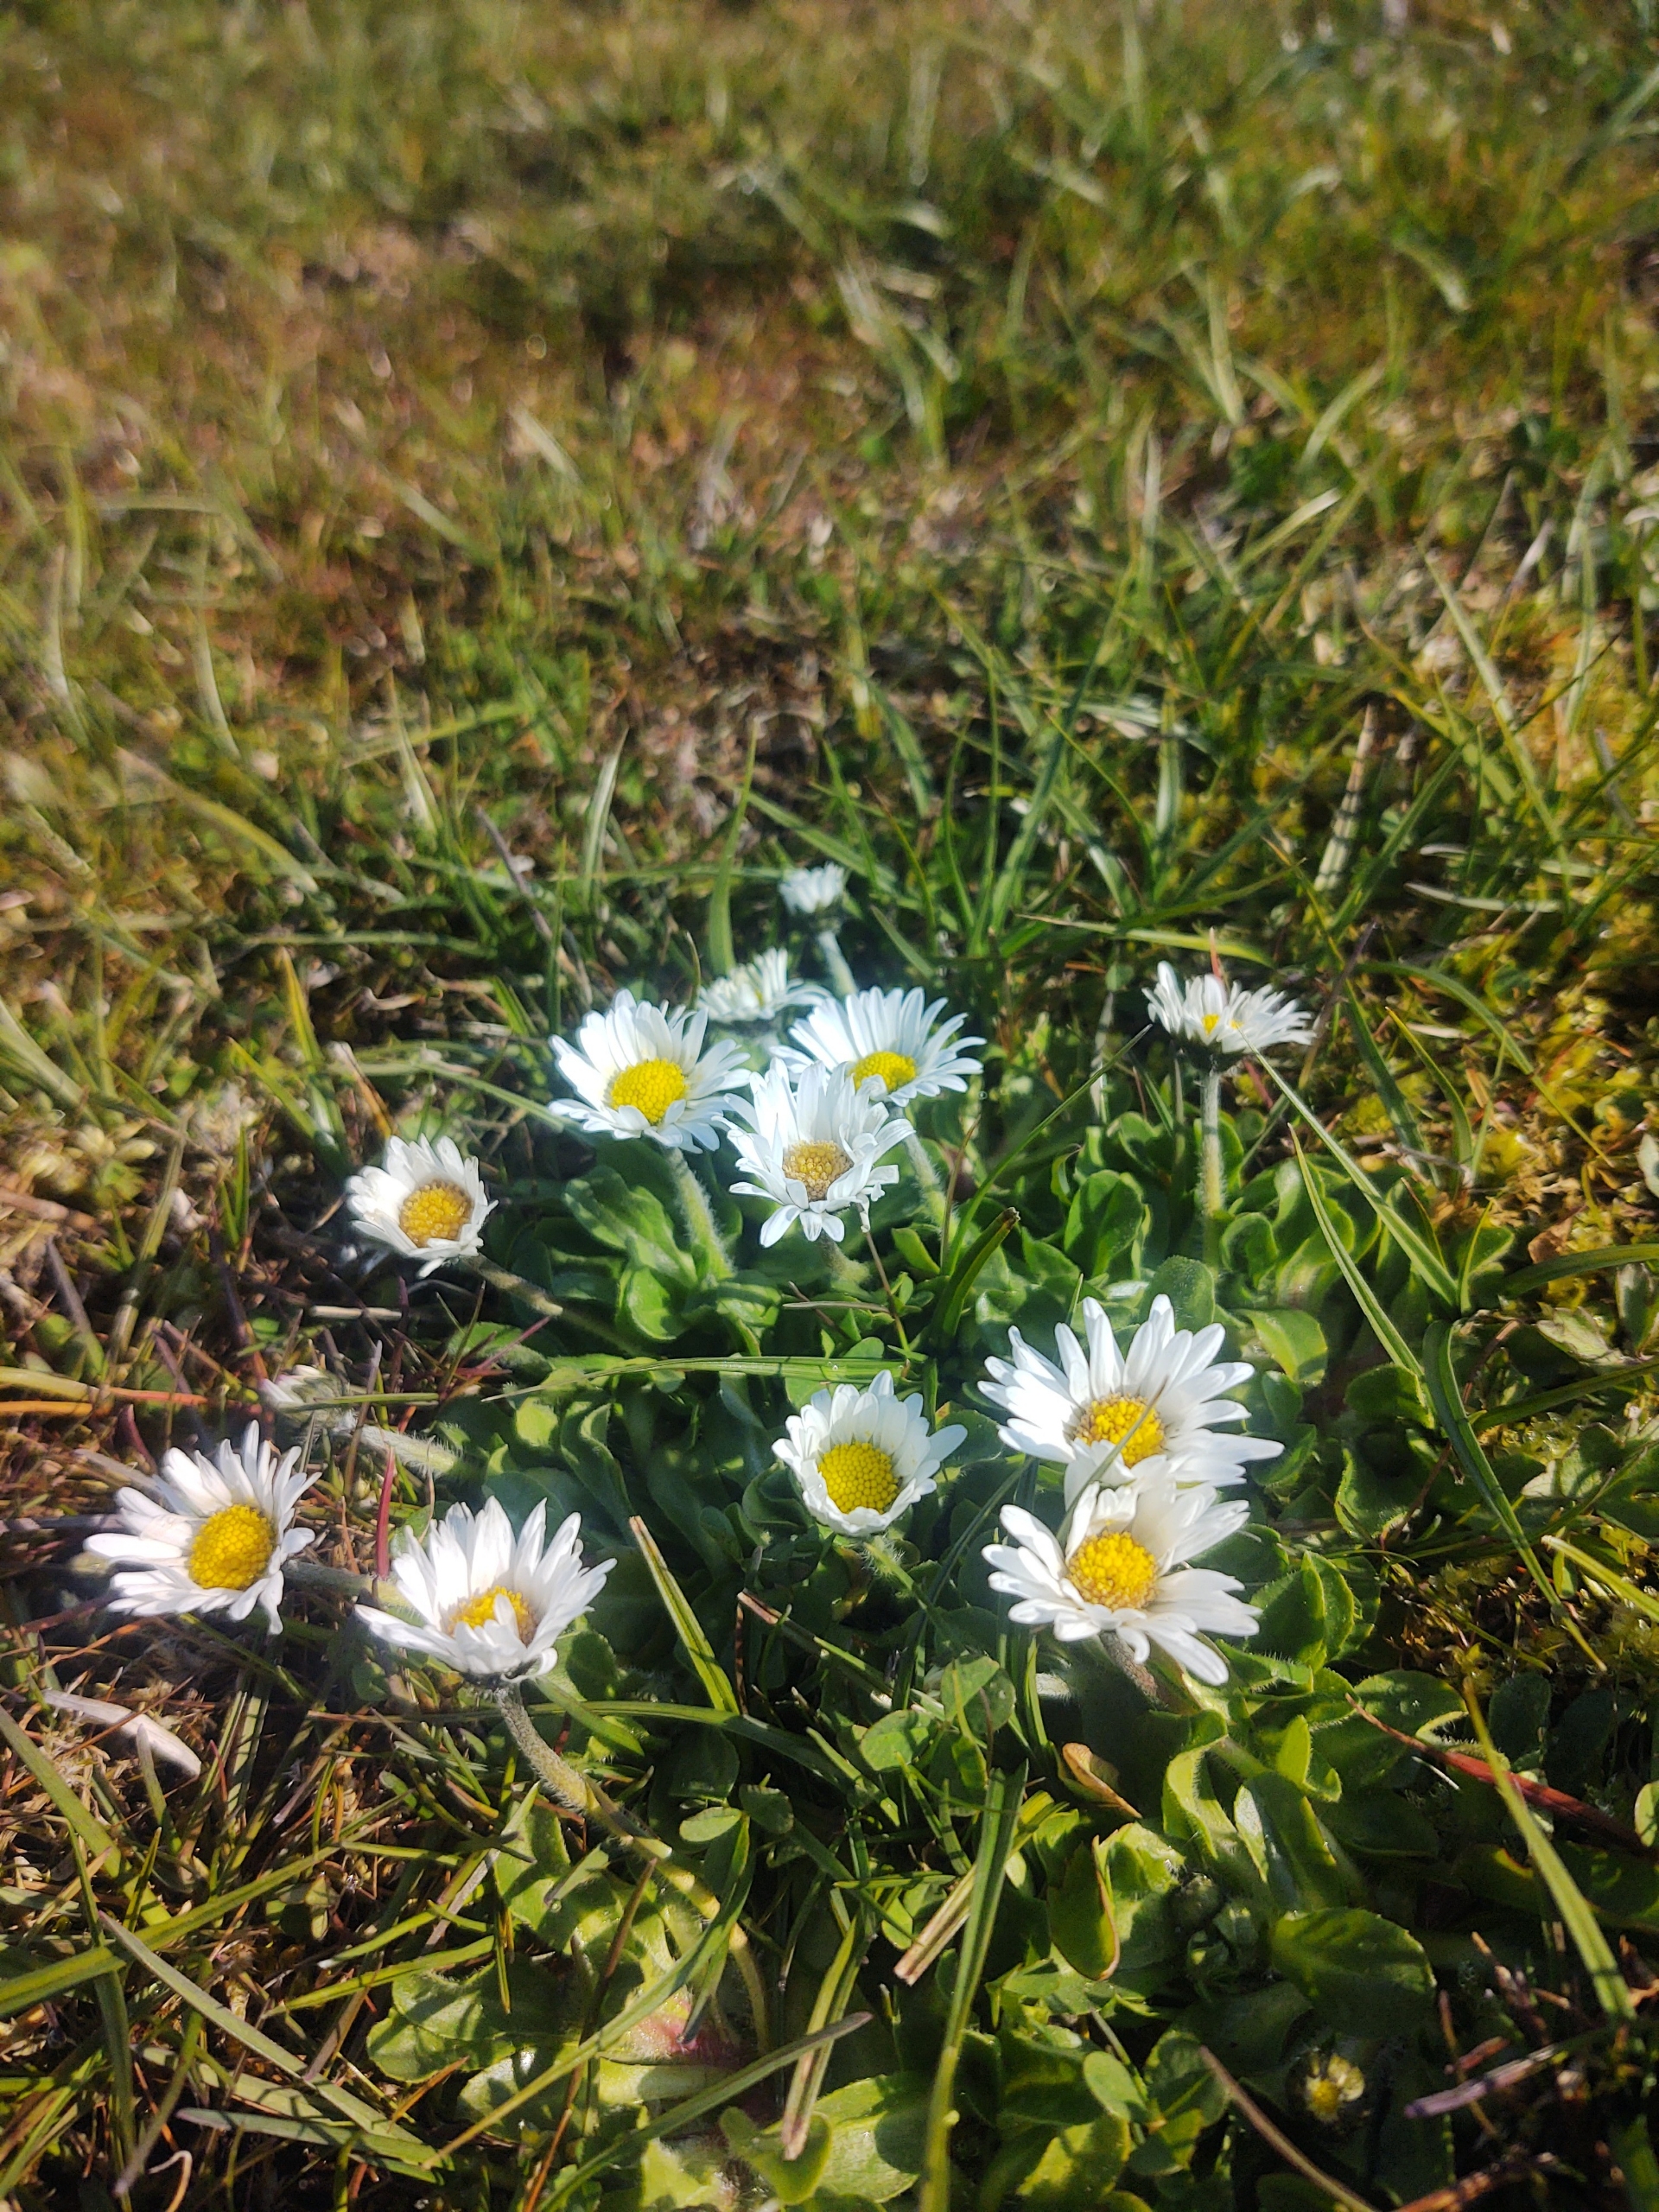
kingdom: Plantae
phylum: Tracheophyta
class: Magnoliopsida
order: Asterales
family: Asteraceae
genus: Bellis
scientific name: Bellis perennis
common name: Tusindfryd
